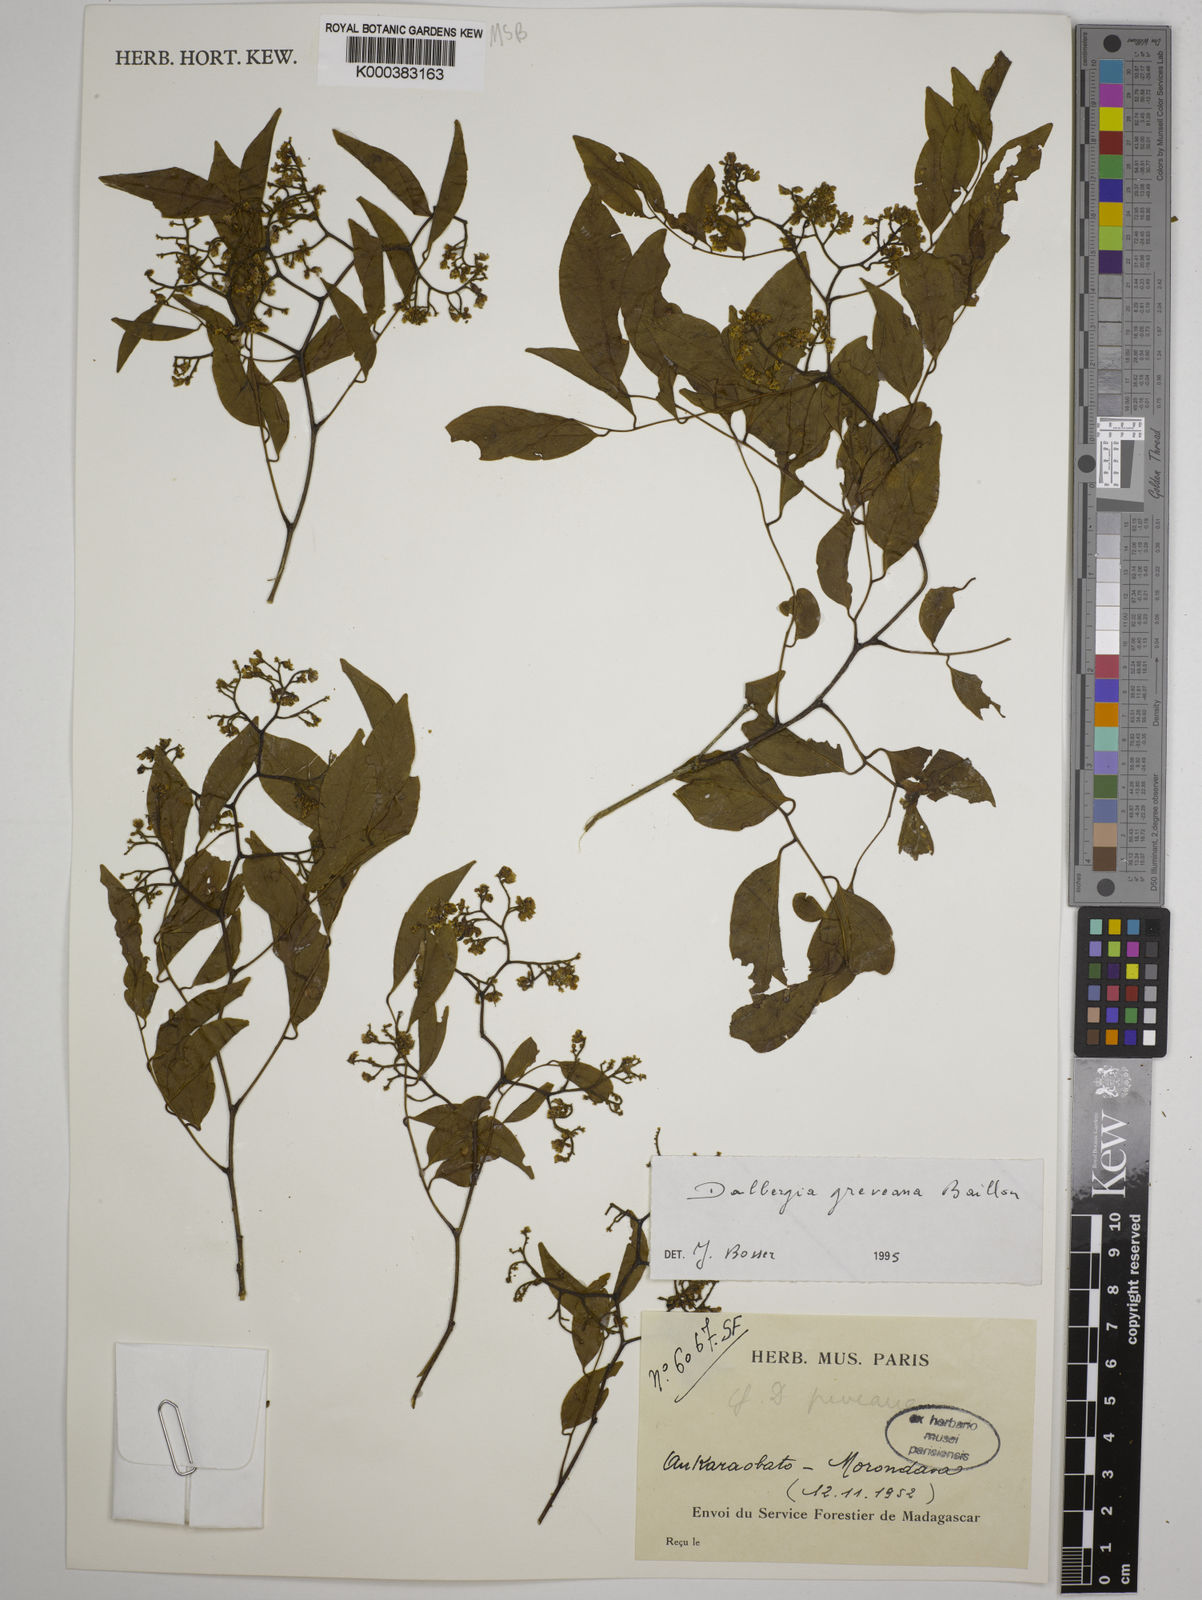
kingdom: Plantae
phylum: Tracheophyta
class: Magnoliopsida
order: Fabales
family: Fabaceae
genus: Dalbergia
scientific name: Dalbergia greveana
